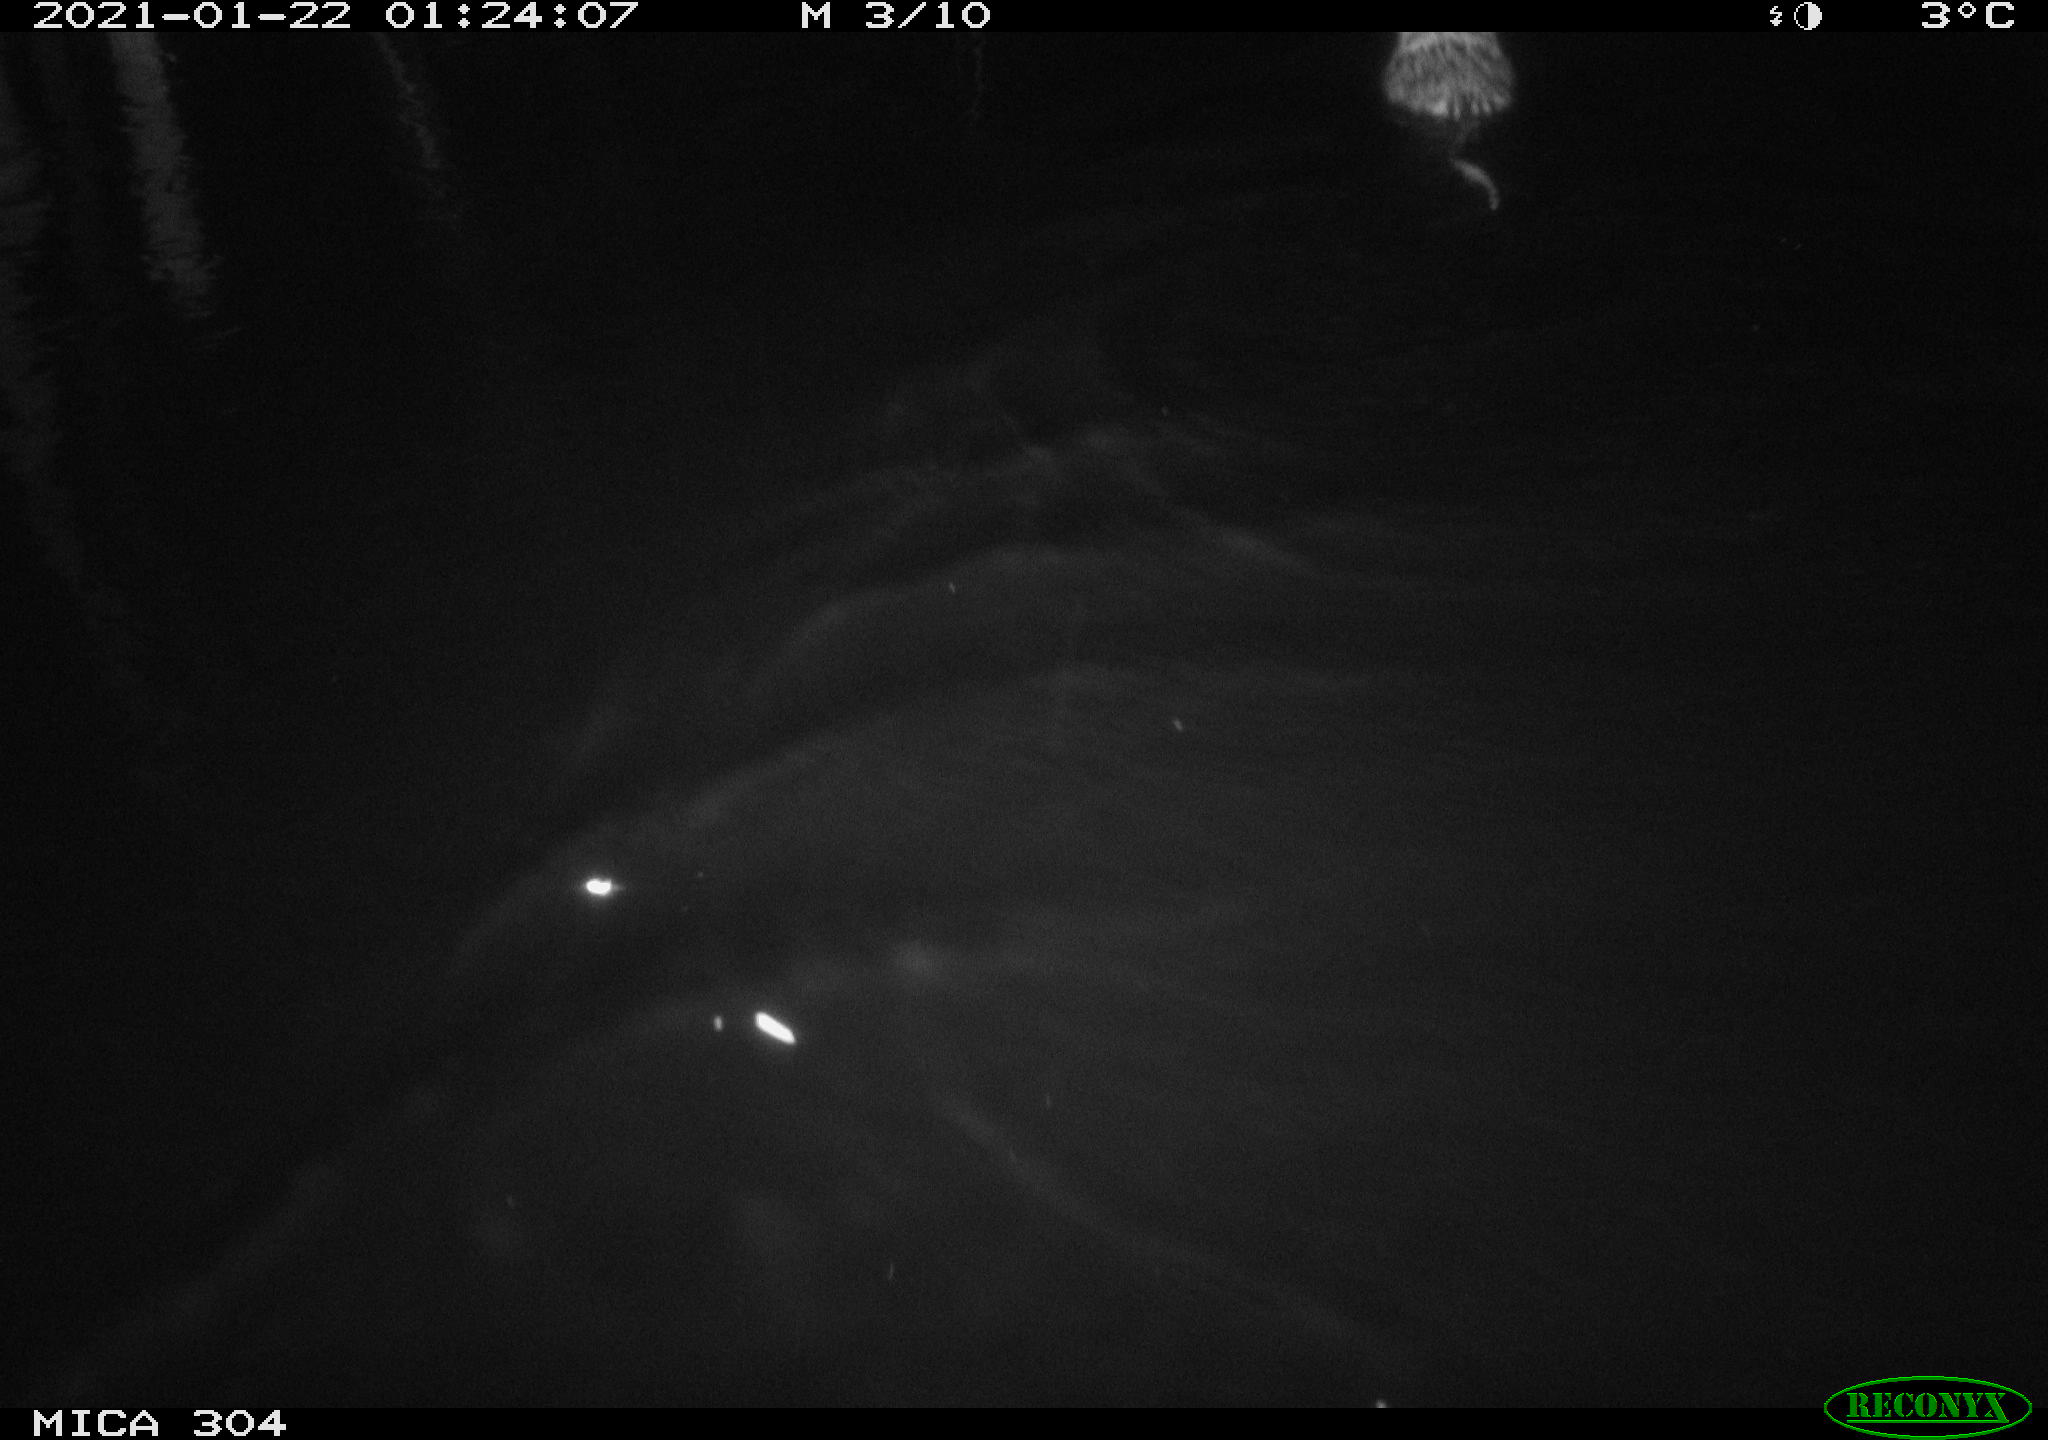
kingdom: Animalia
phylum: Chordata
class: Mammalia
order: Rodentia
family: Cricetidae
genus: Ondatra
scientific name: Ondatra zibethicus
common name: Muskrat
